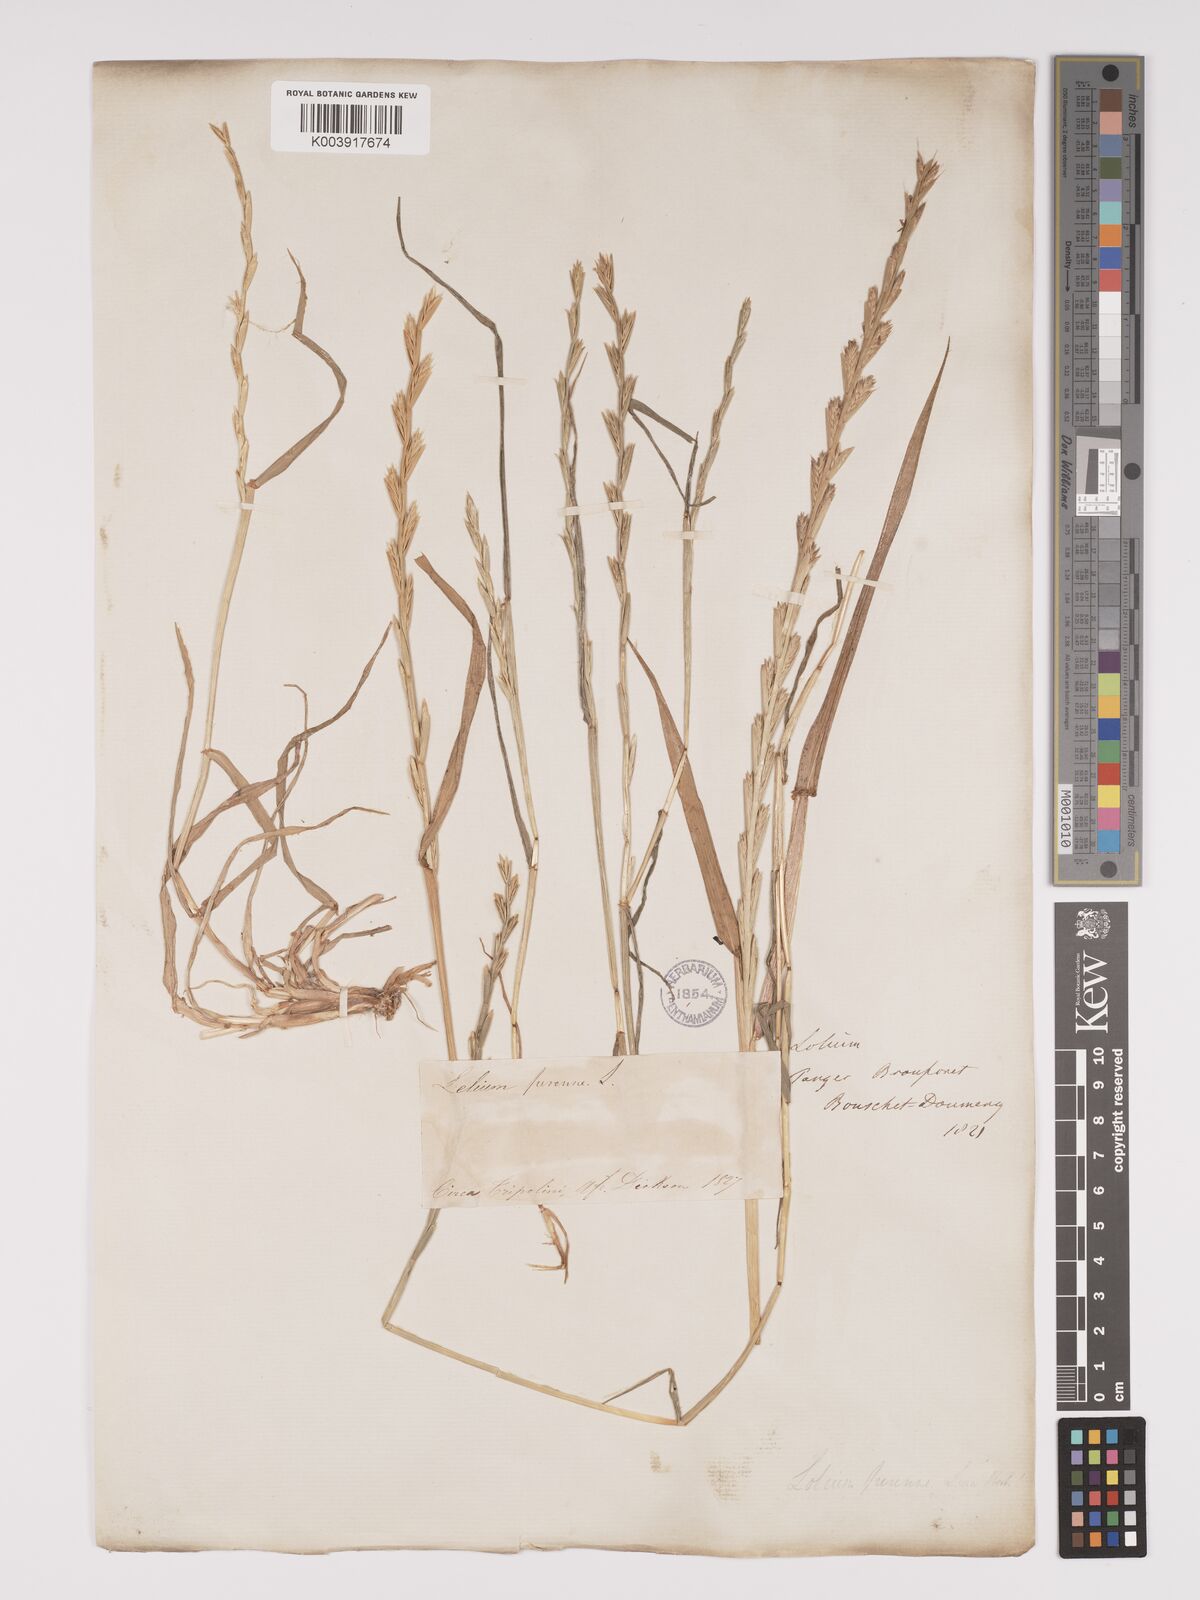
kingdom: Plantae
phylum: Tracheophyta
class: Liliopsida
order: Poales
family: Poaceae
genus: Lolium
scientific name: Lolium rigidum
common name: Wimmera ryegrass
